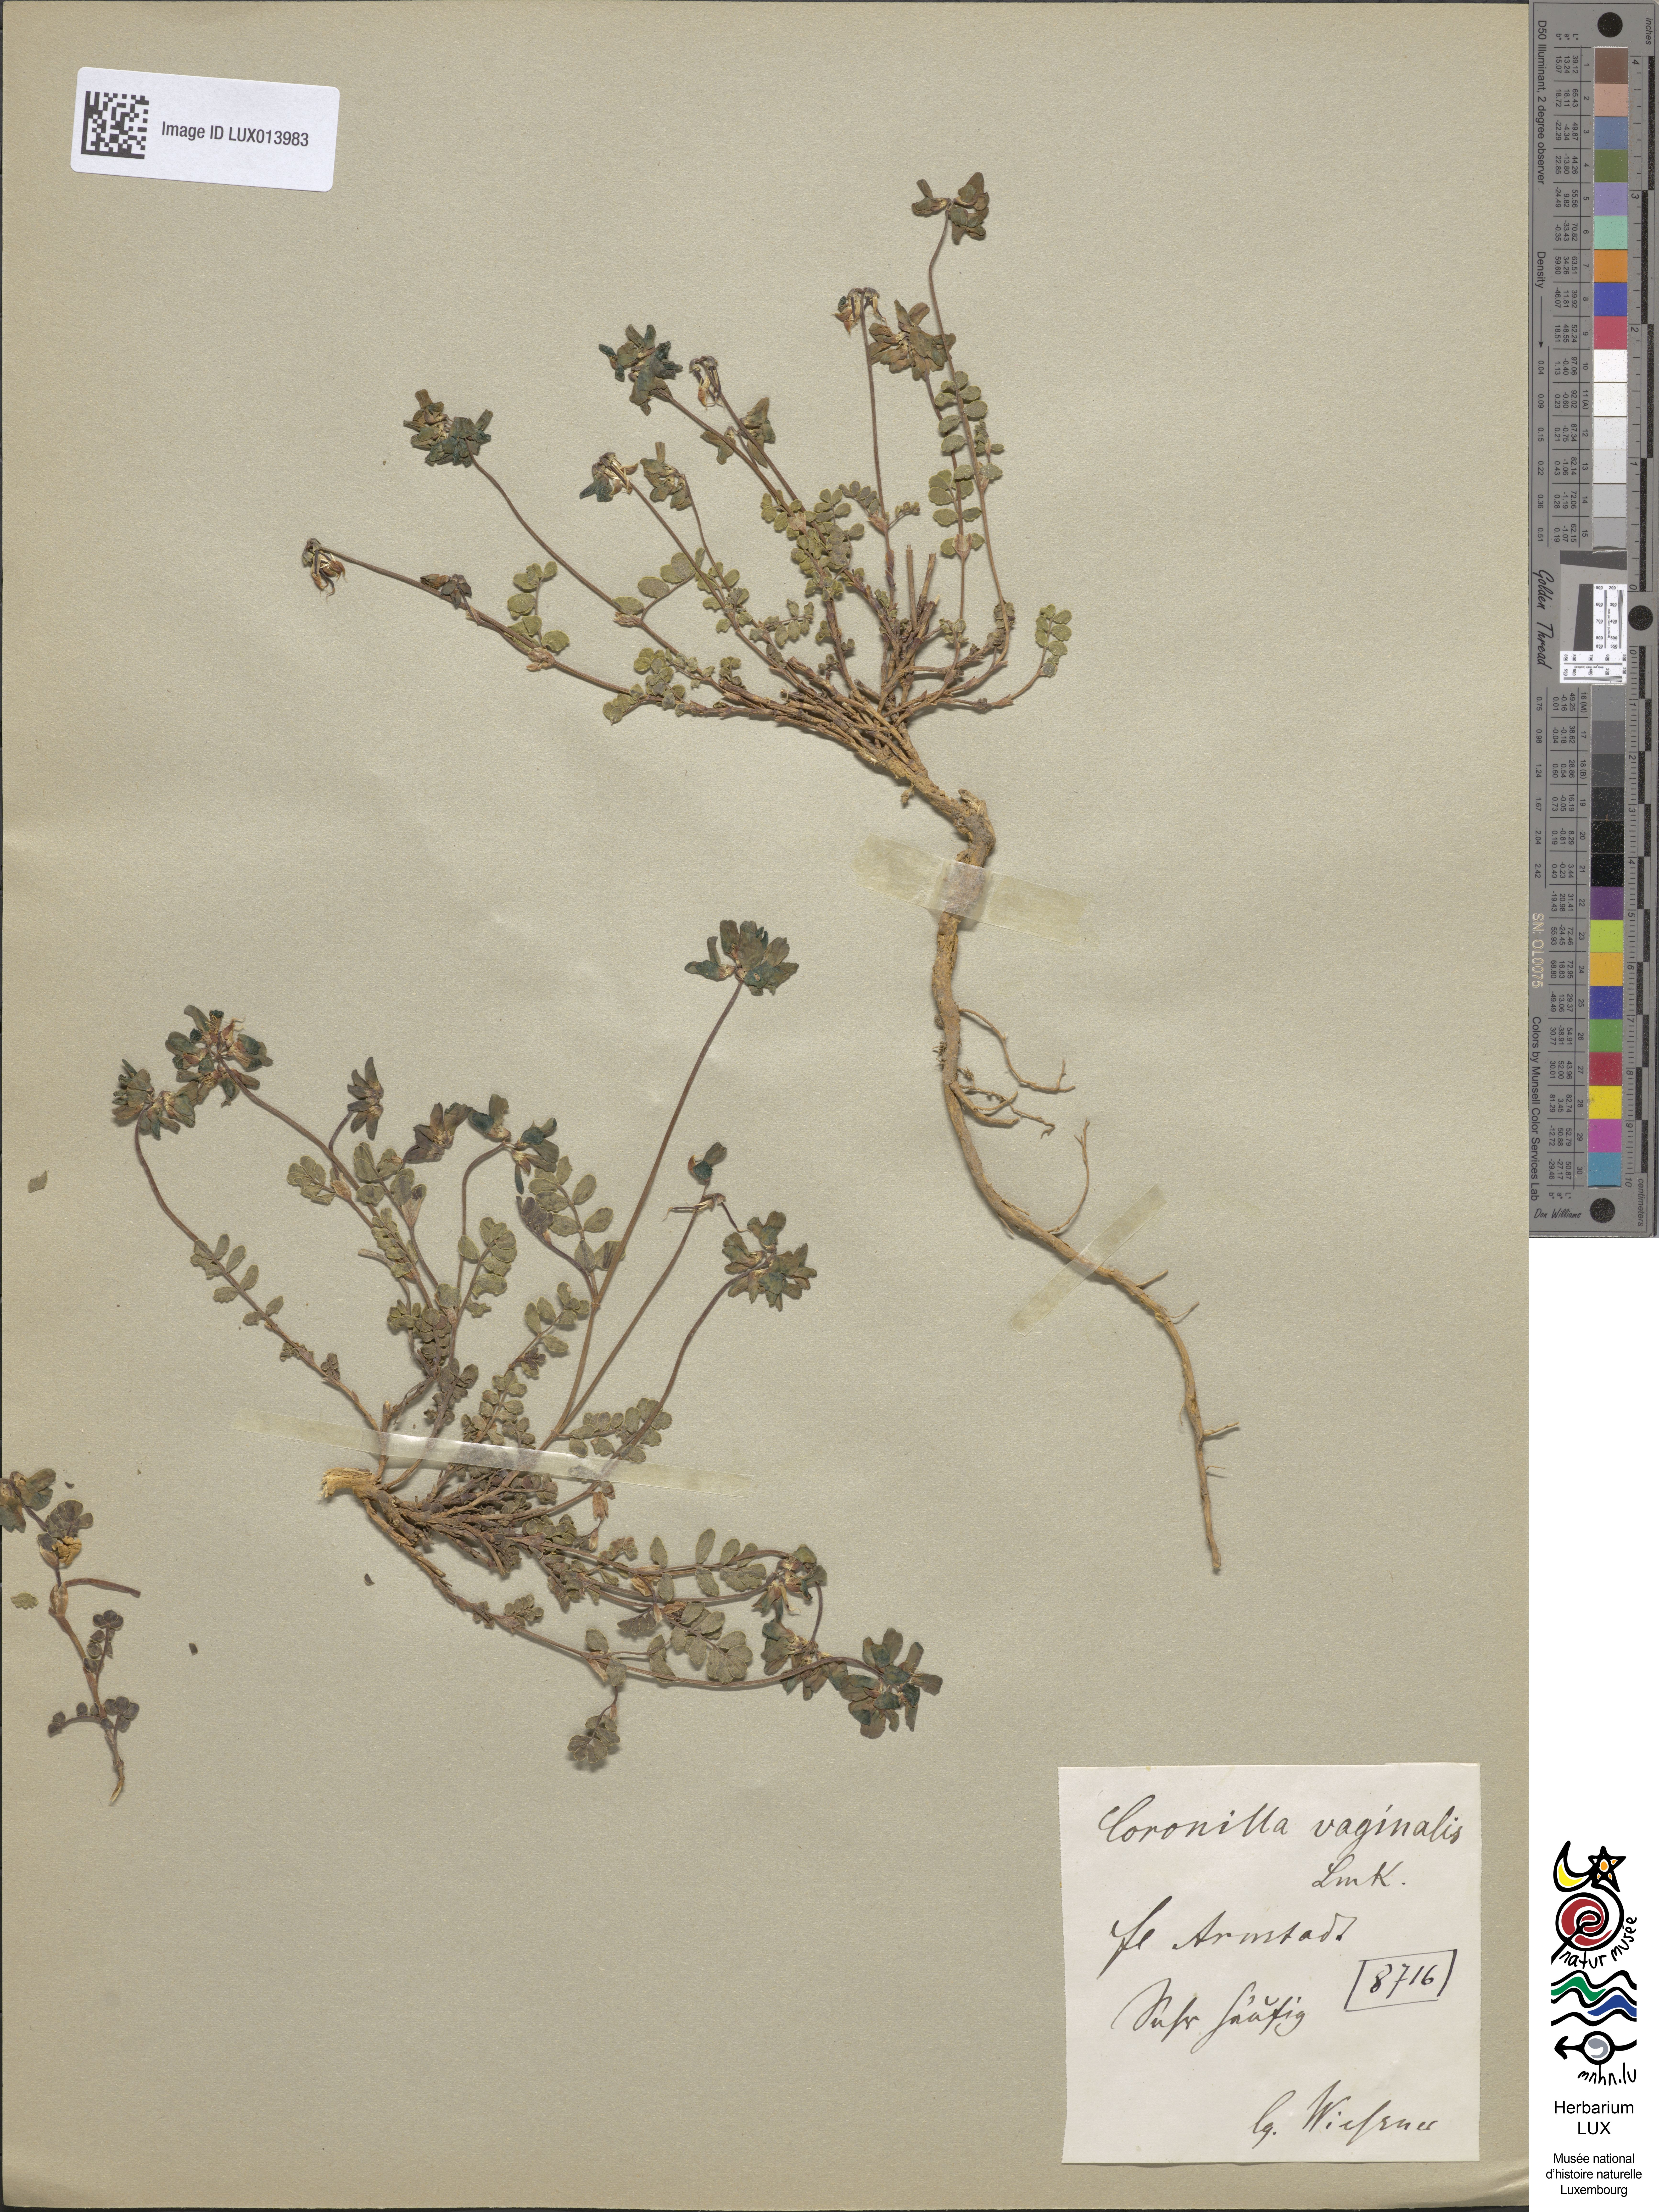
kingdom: Plantae
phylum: Tracheophyta
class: Magnoliopsida
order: Fabales
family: Fabaceae
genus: Coronilla
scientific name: Coronilla vaginalis
